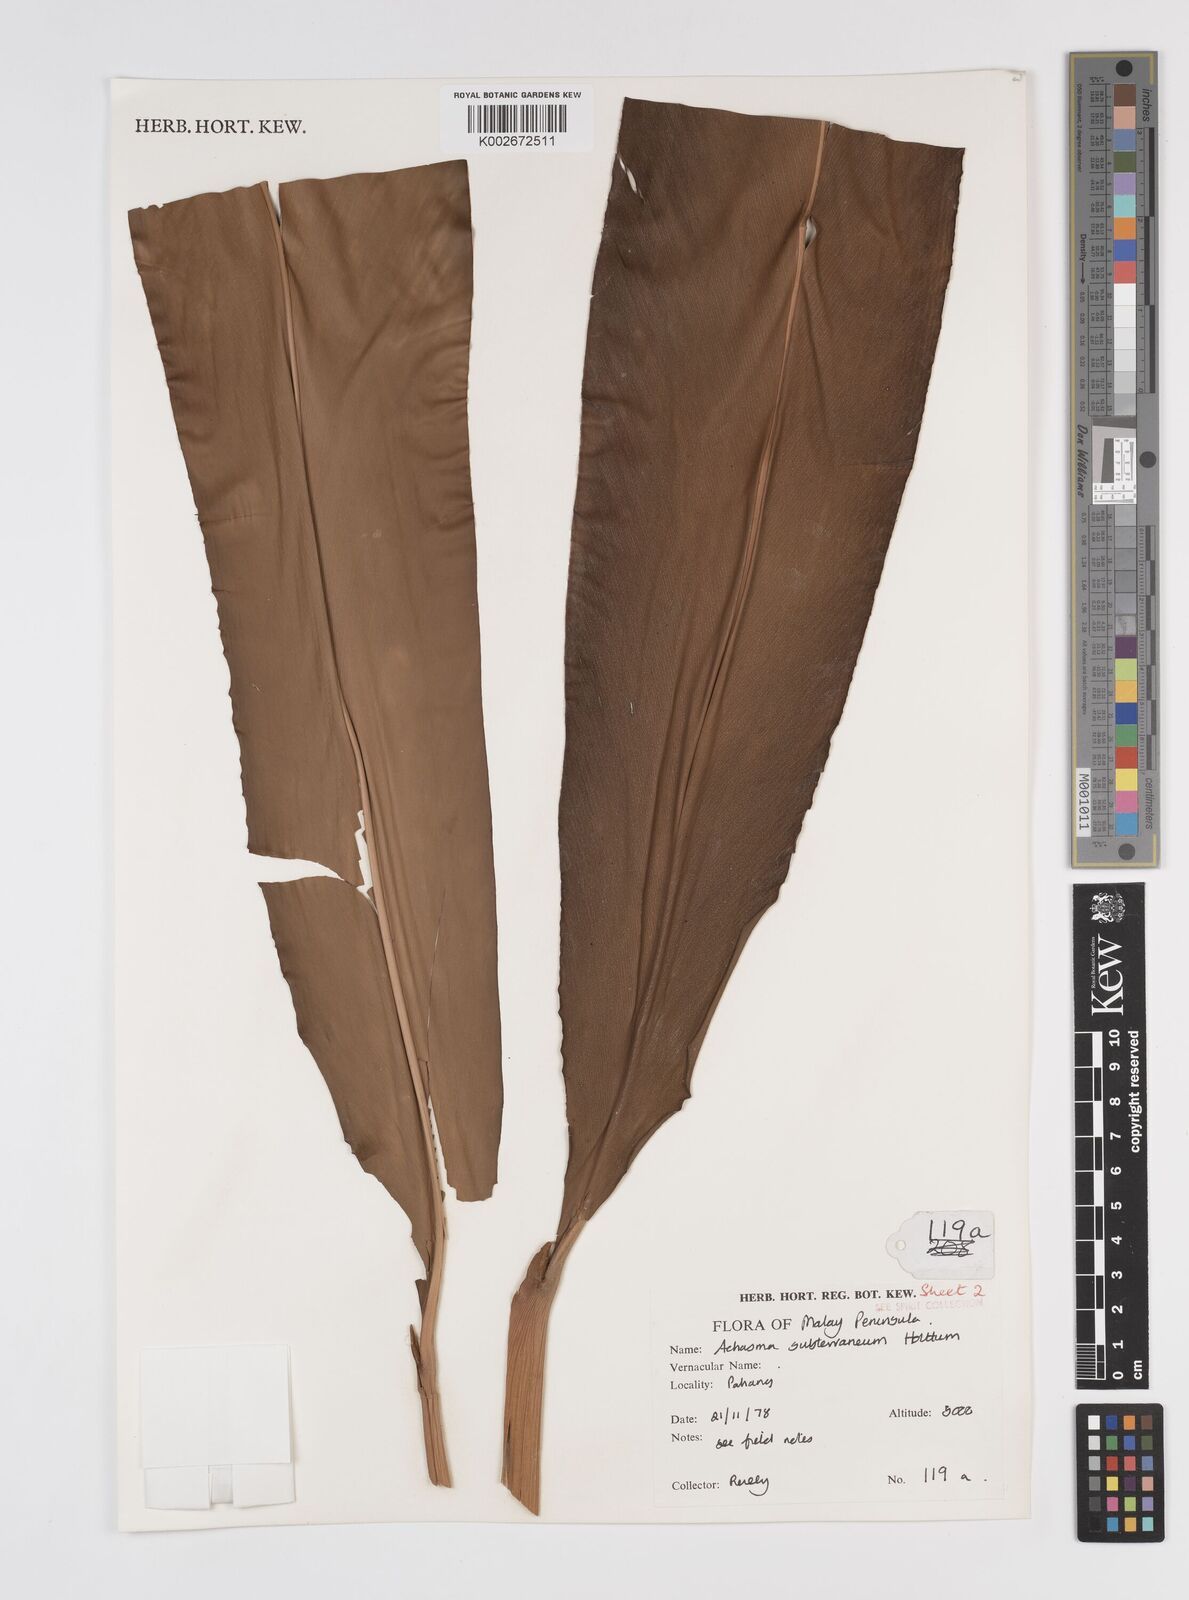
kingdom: Plantae
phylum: Tracheophyta
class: Liliopsida
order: Zingiberales
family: Zingiberaceae
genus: Etlingera
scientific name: Etlingera subterranea
